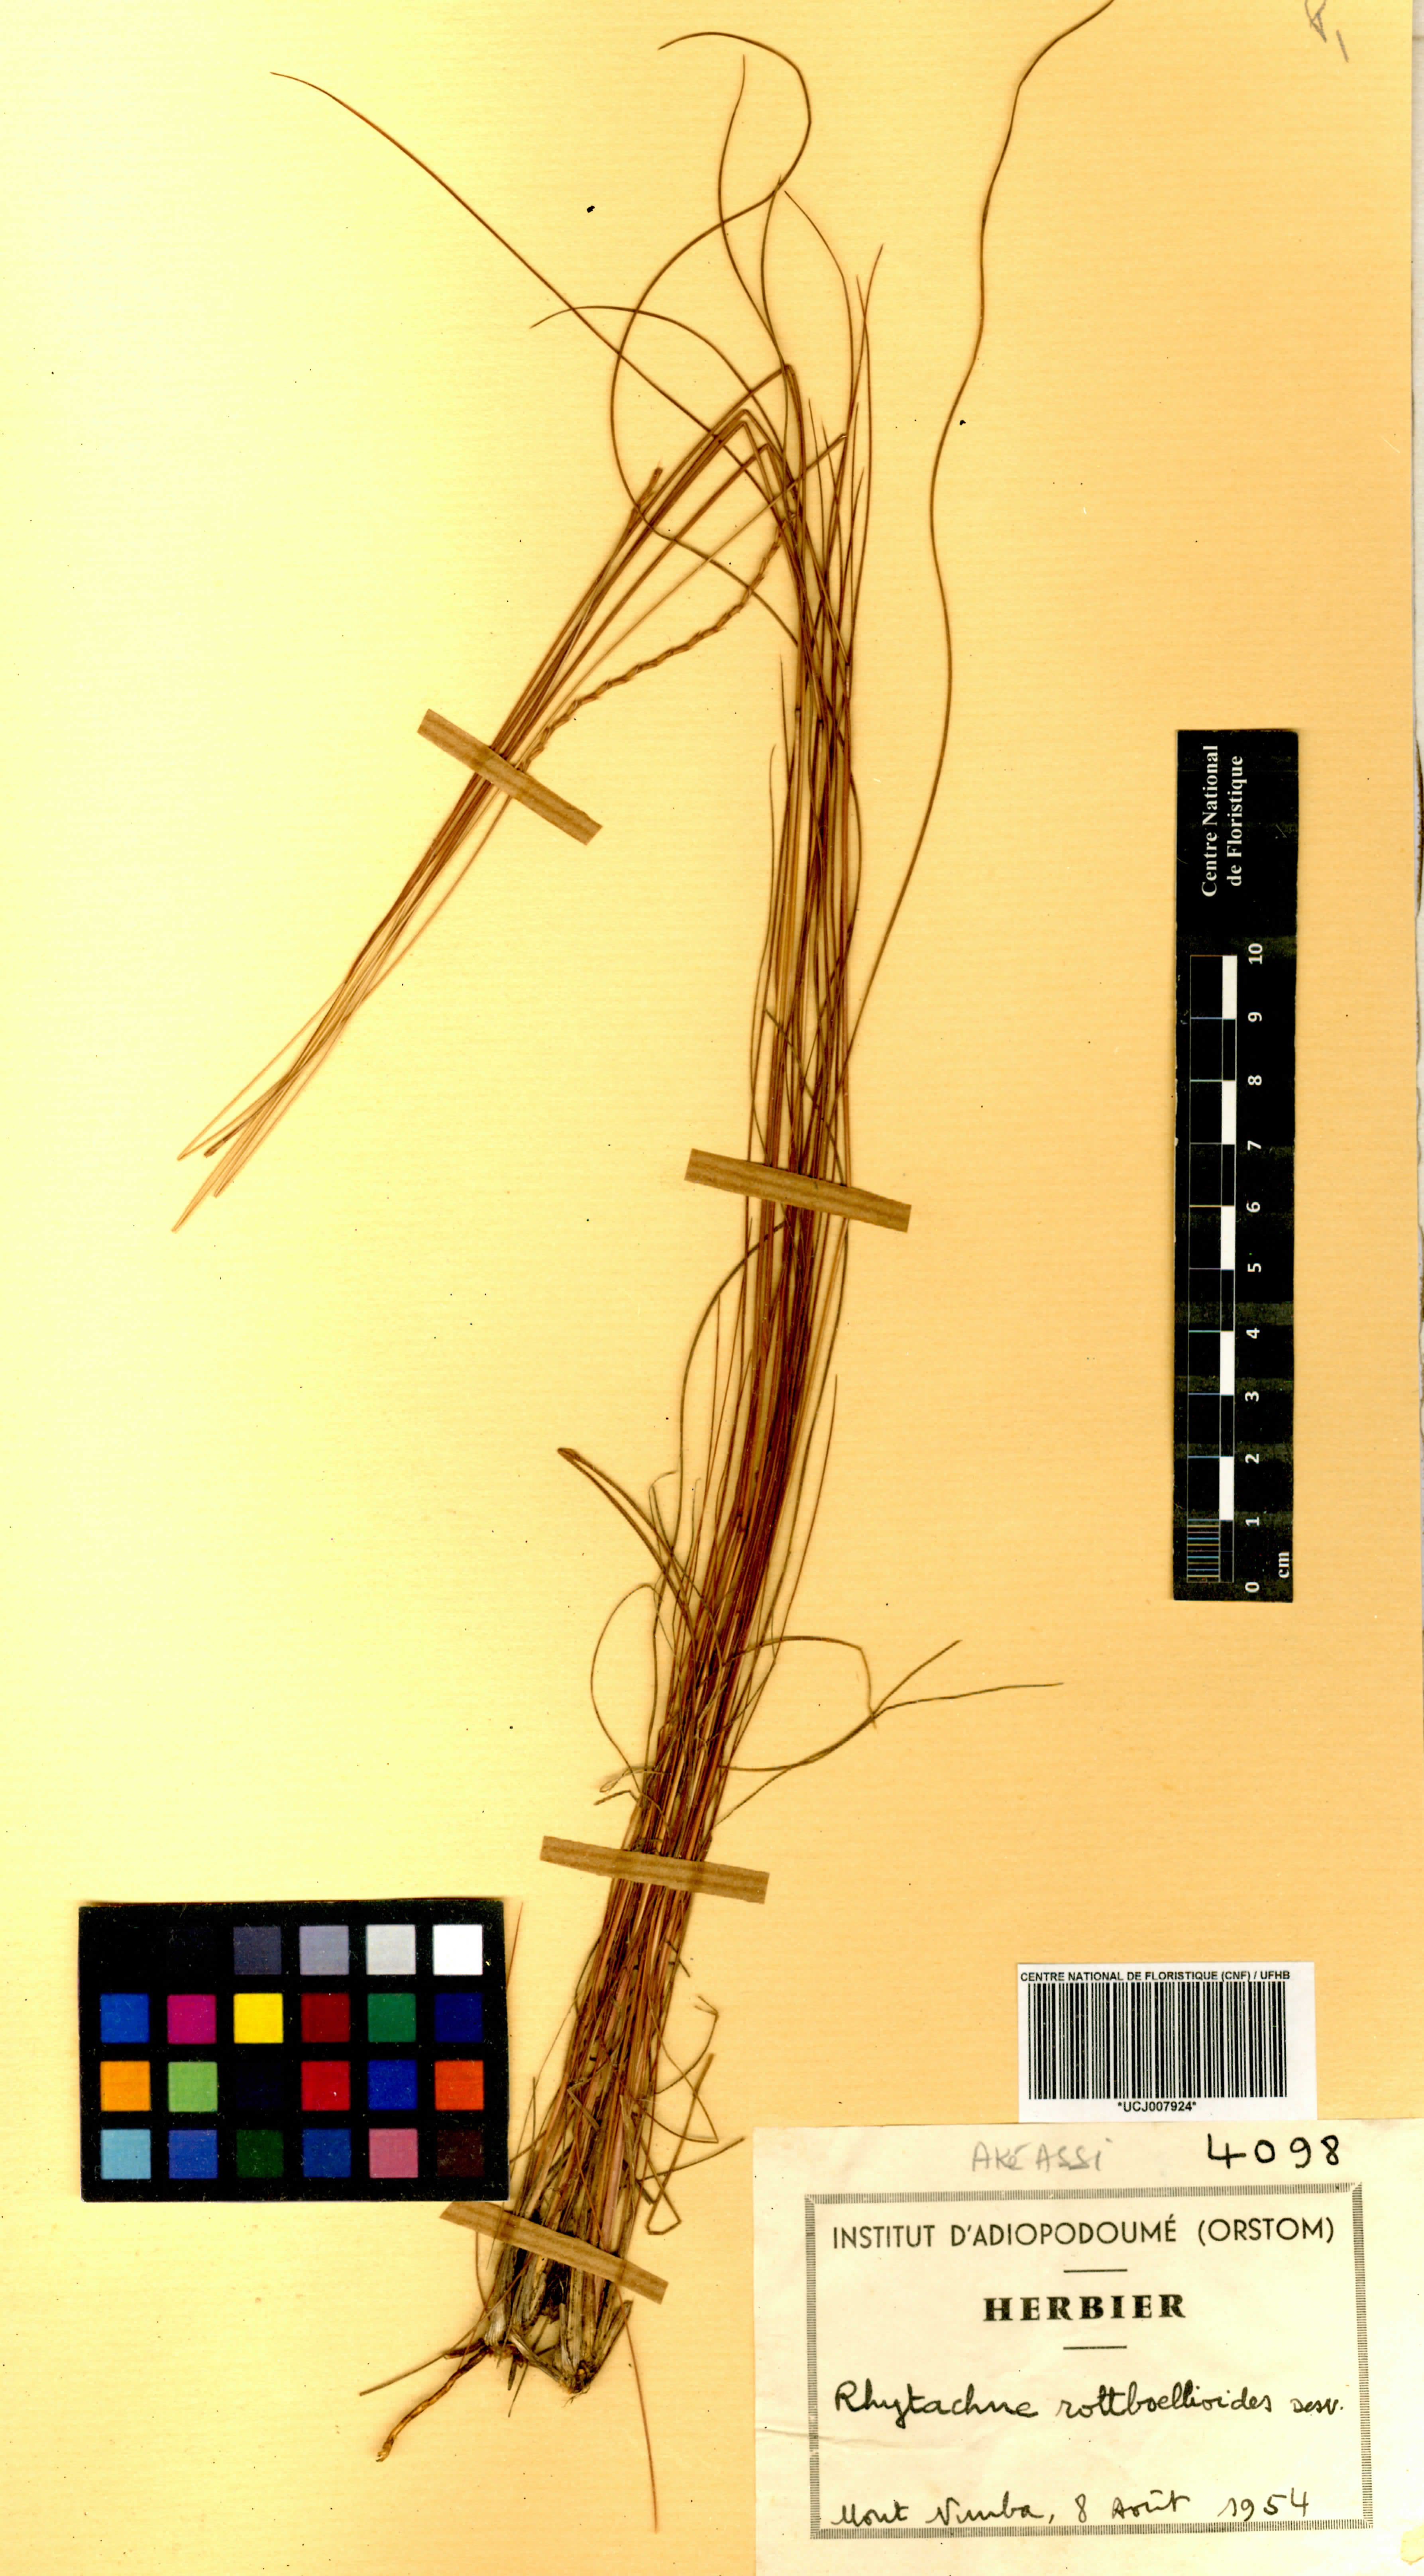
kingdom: Plantae
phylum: Tracheophyta
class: Liliopsida
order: Poales
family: Poaceae
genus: Rhytachne
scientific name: Rhytachne rottboellioides
